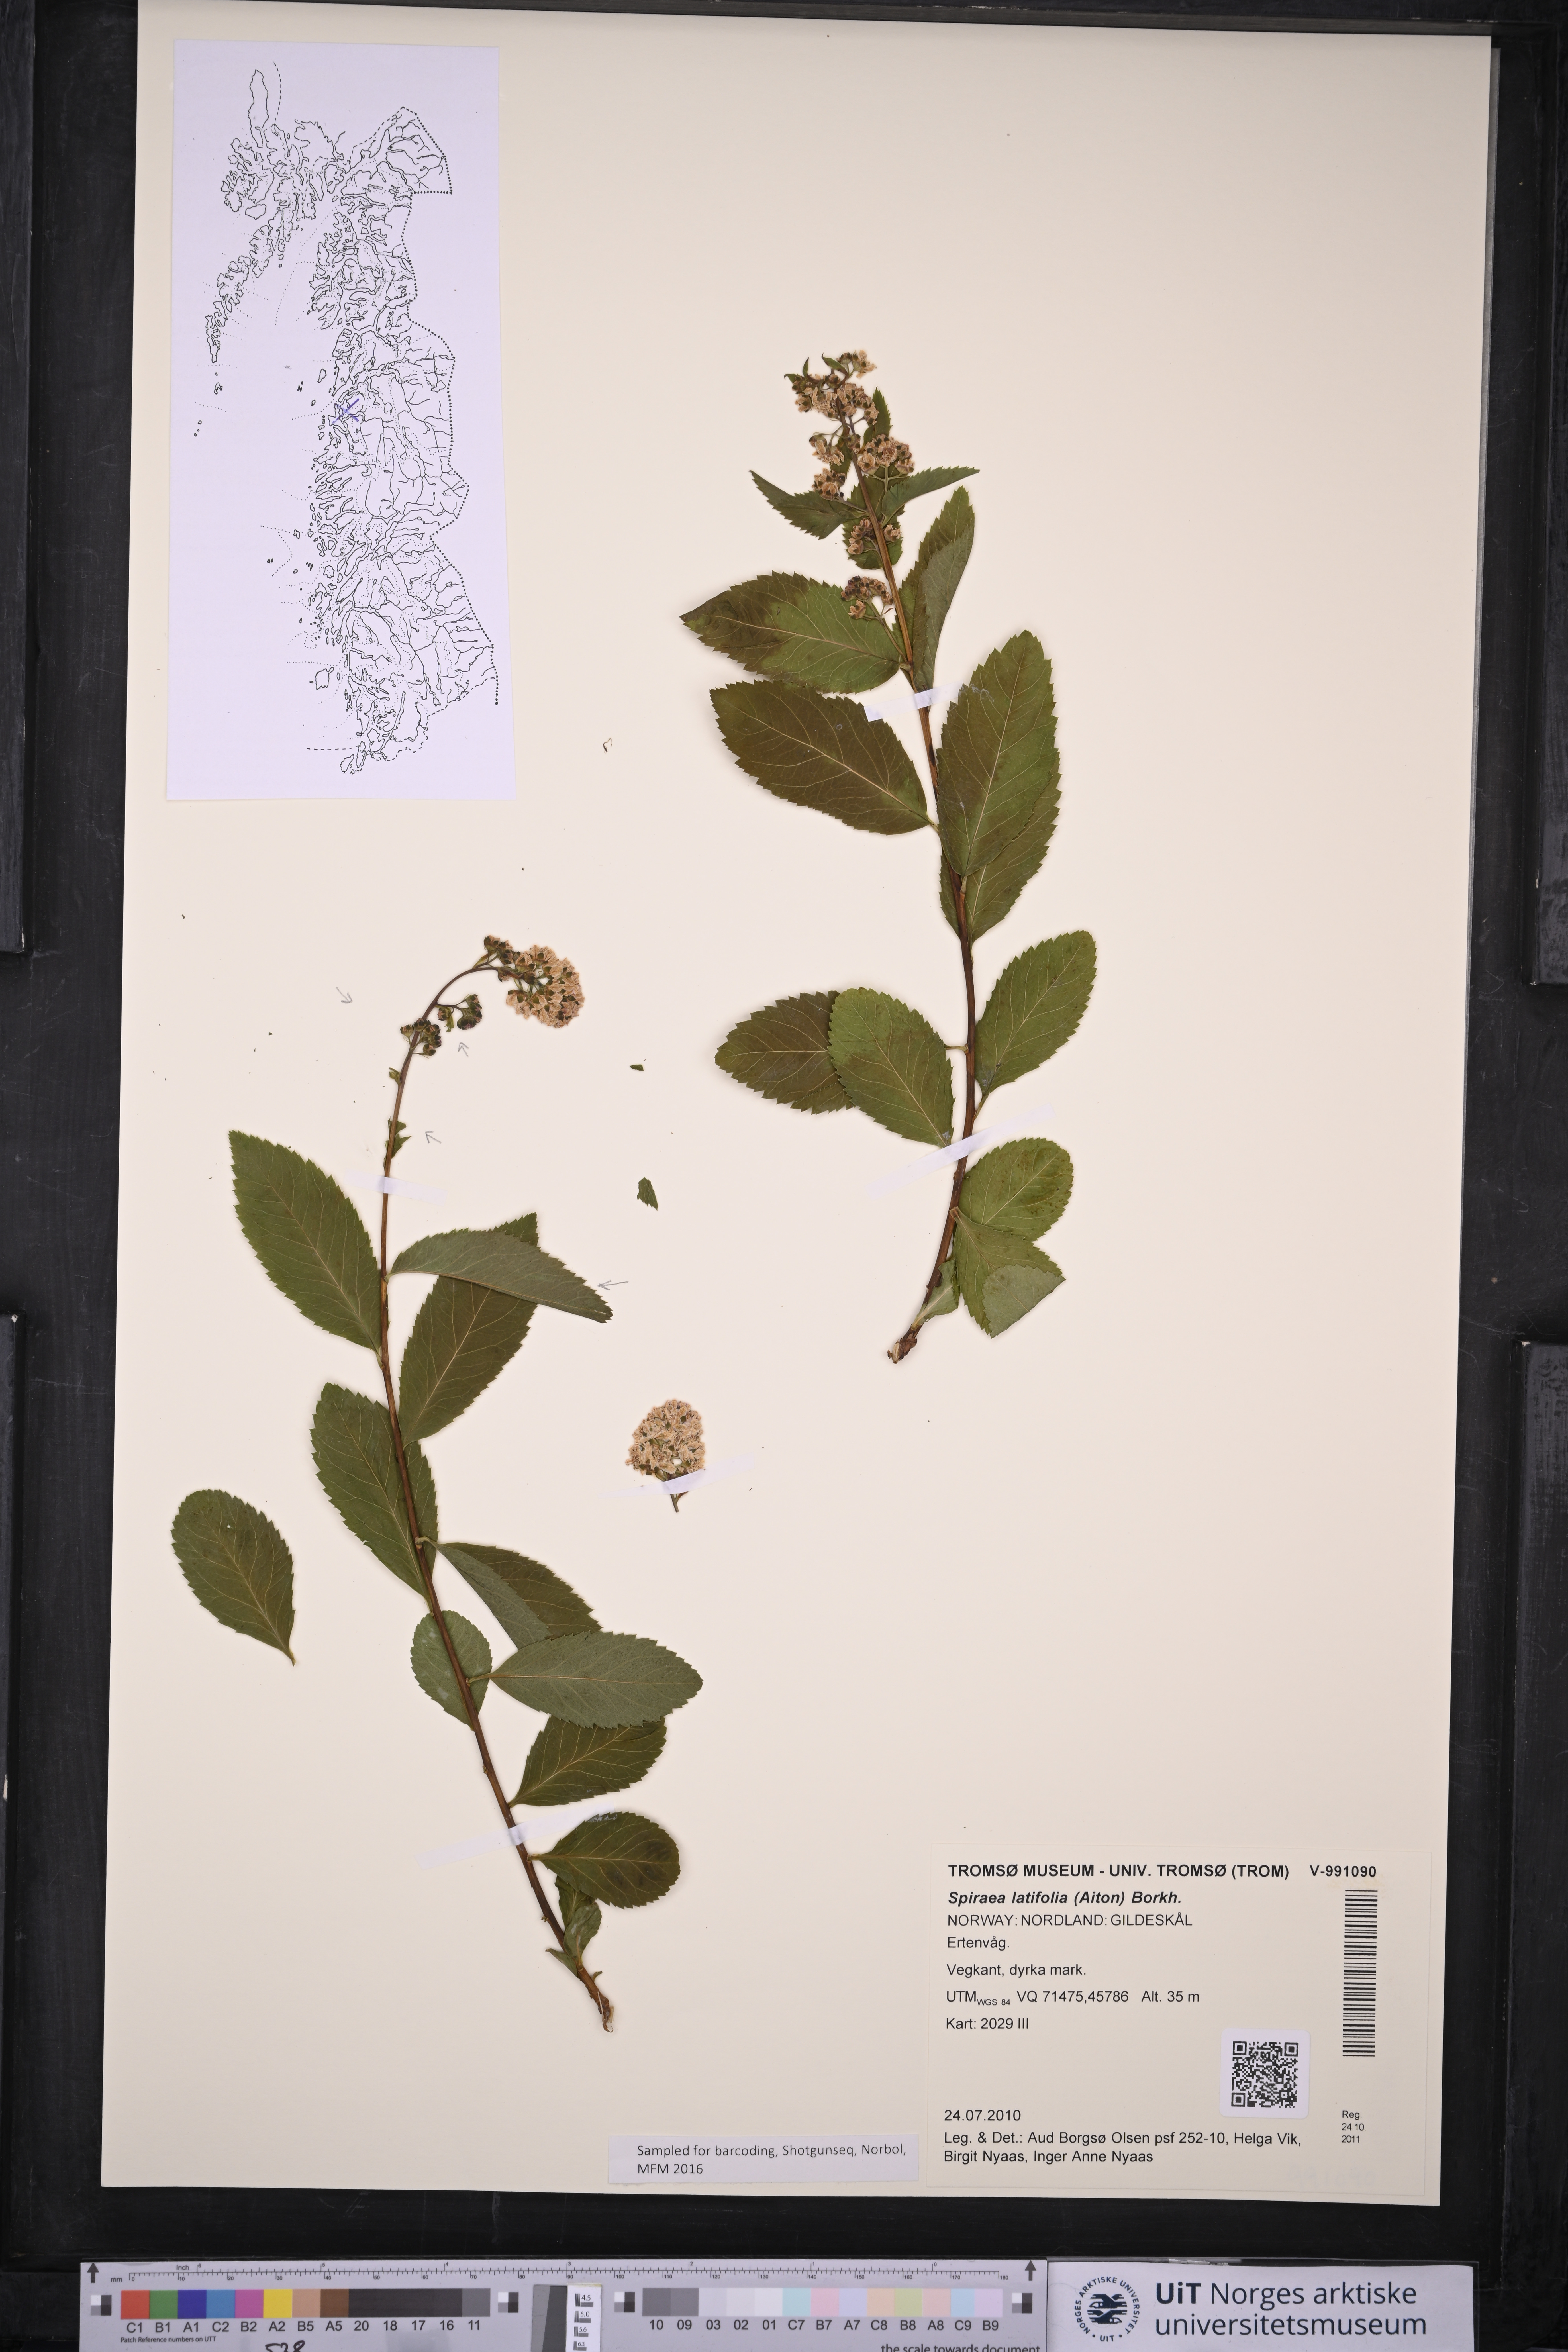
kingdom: Plantae
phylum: Tracheophyta
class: Magnoliopsida
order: Rosales
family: Rosaceae
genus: Spiraea
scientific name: Spiraea alba
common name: Pale bridewort
